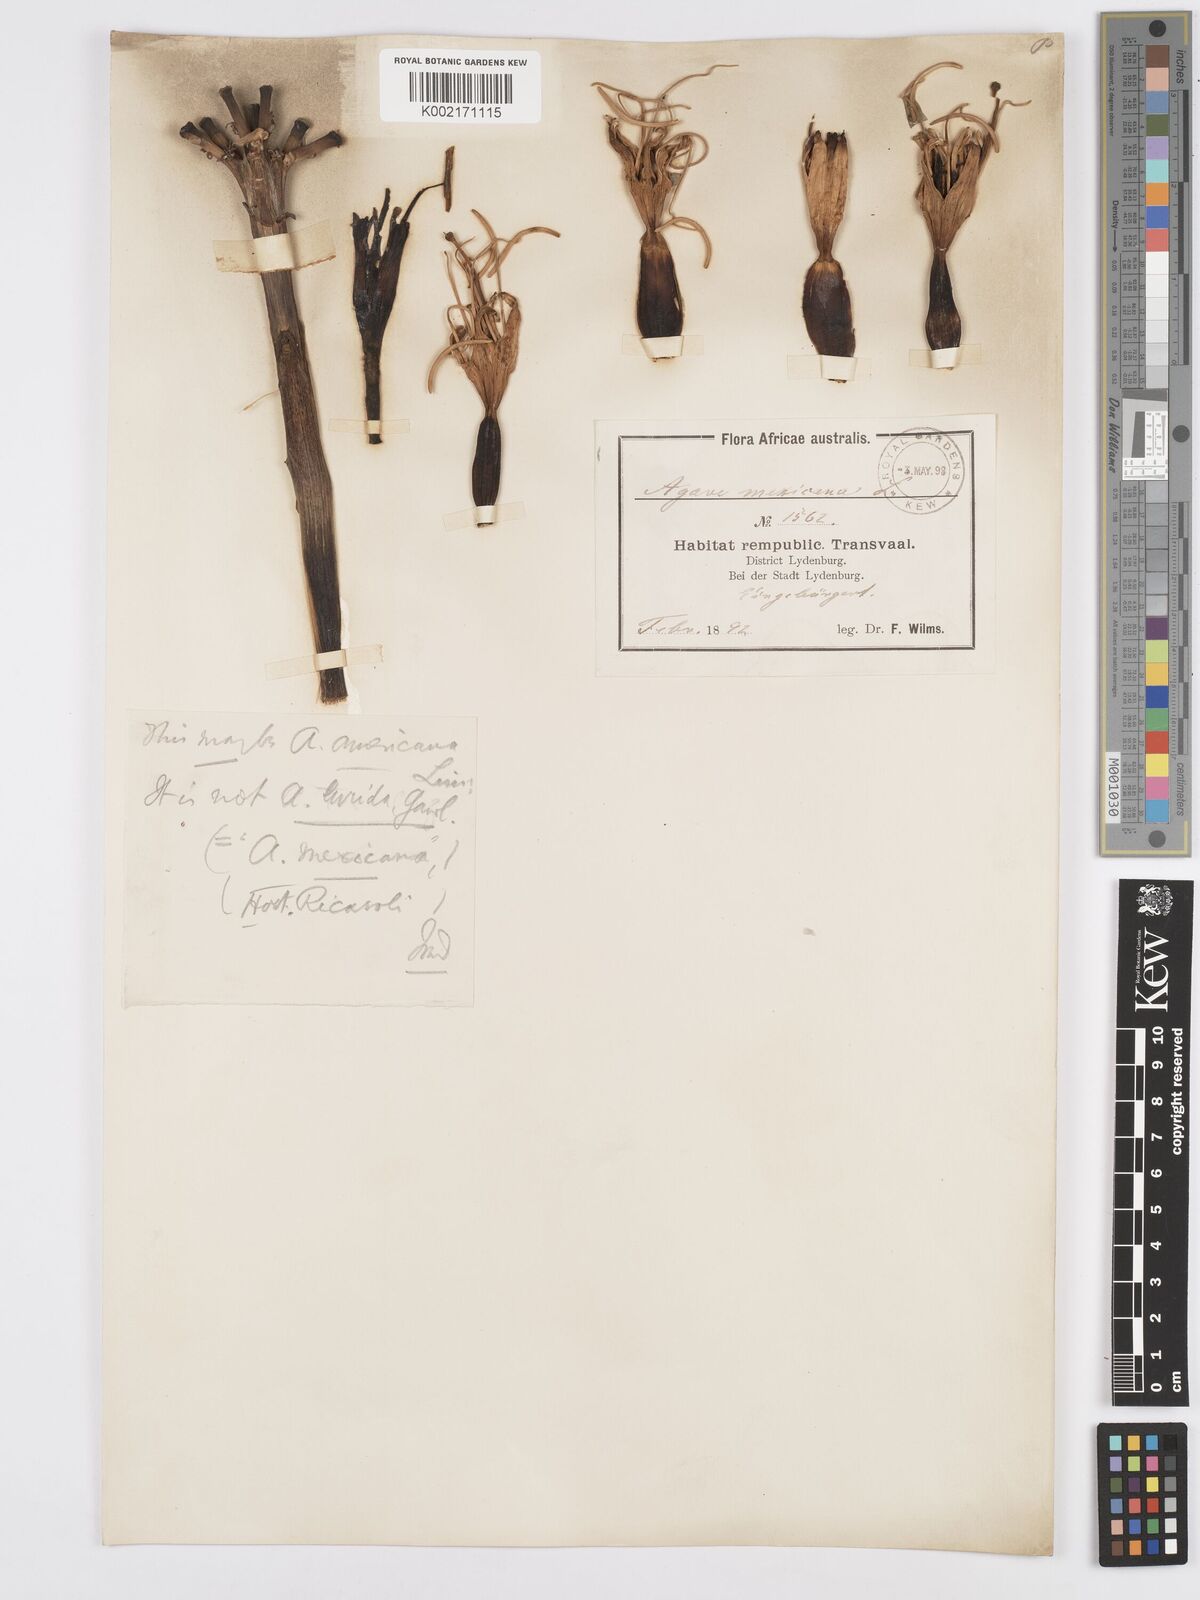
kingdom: Plantae
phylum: Tracheophyta
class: Liliopsida
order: Asparagales
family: Asparagaceae
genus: Agave
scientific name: Agave
